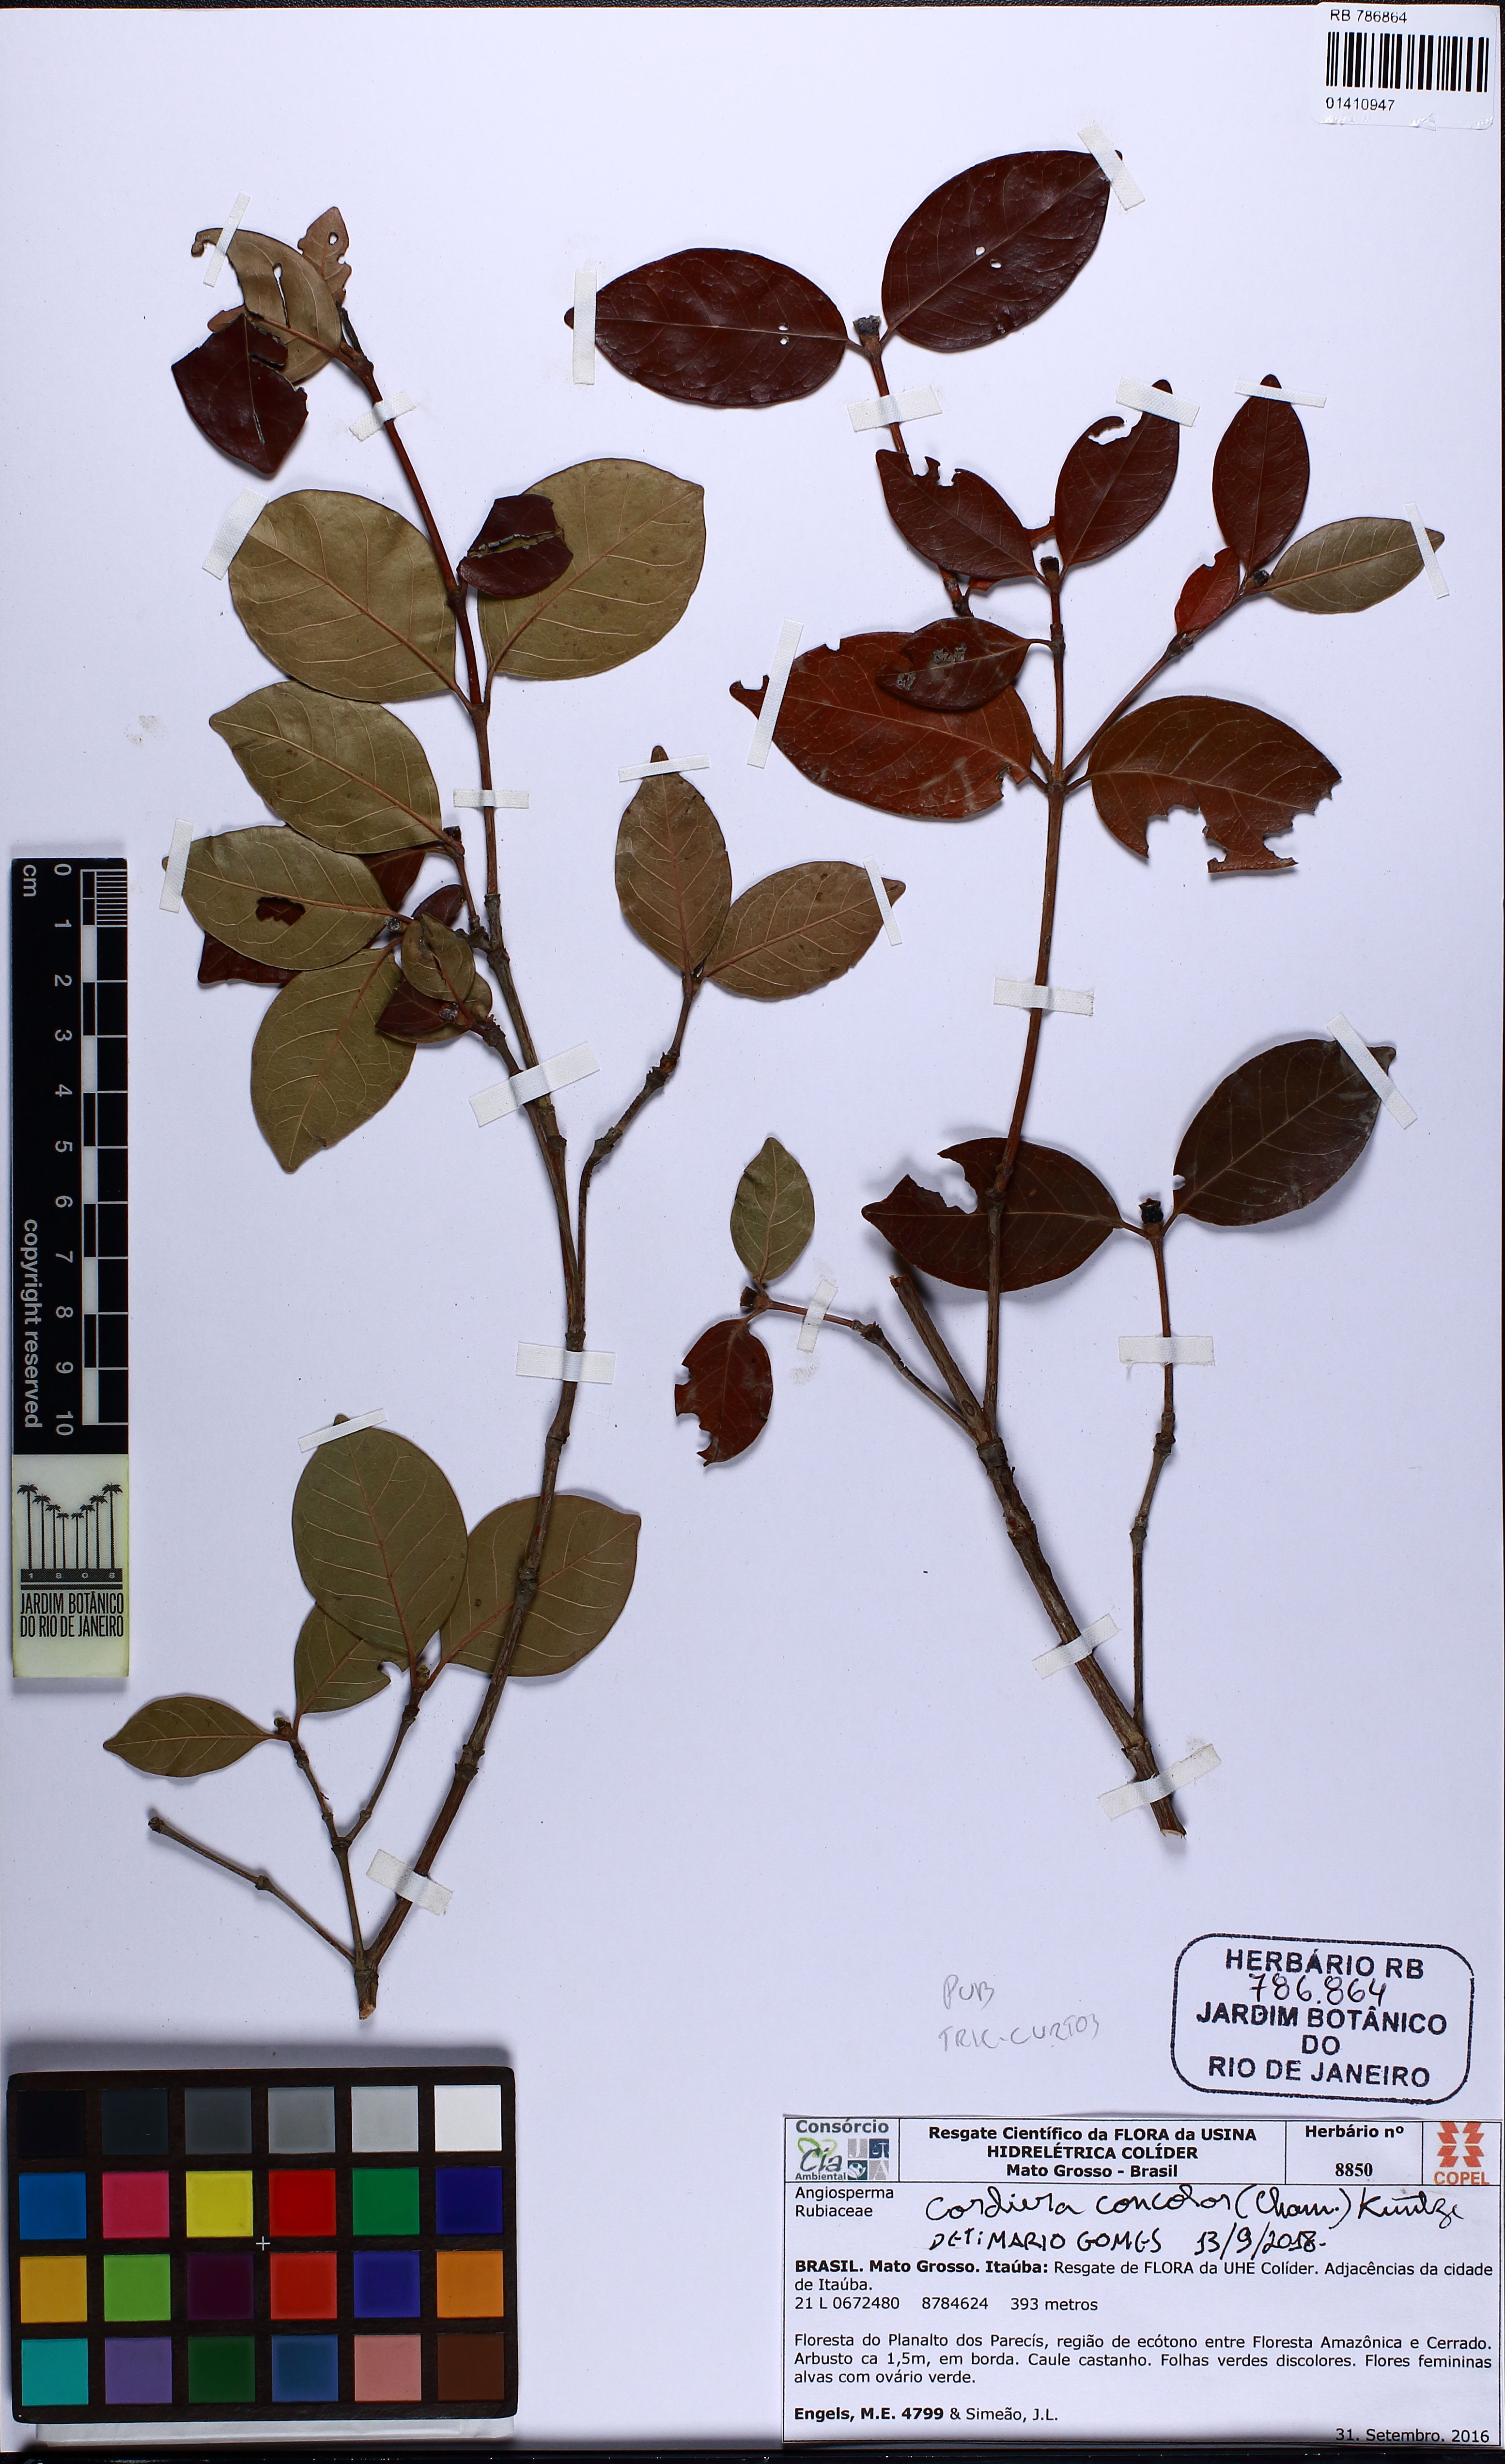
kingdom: Plantae
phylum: Tracheophyta
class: Magnoliopsida
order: Gentianales
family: Rubiaceae
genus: Cordiera
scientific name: Cordiera myrciifolia
